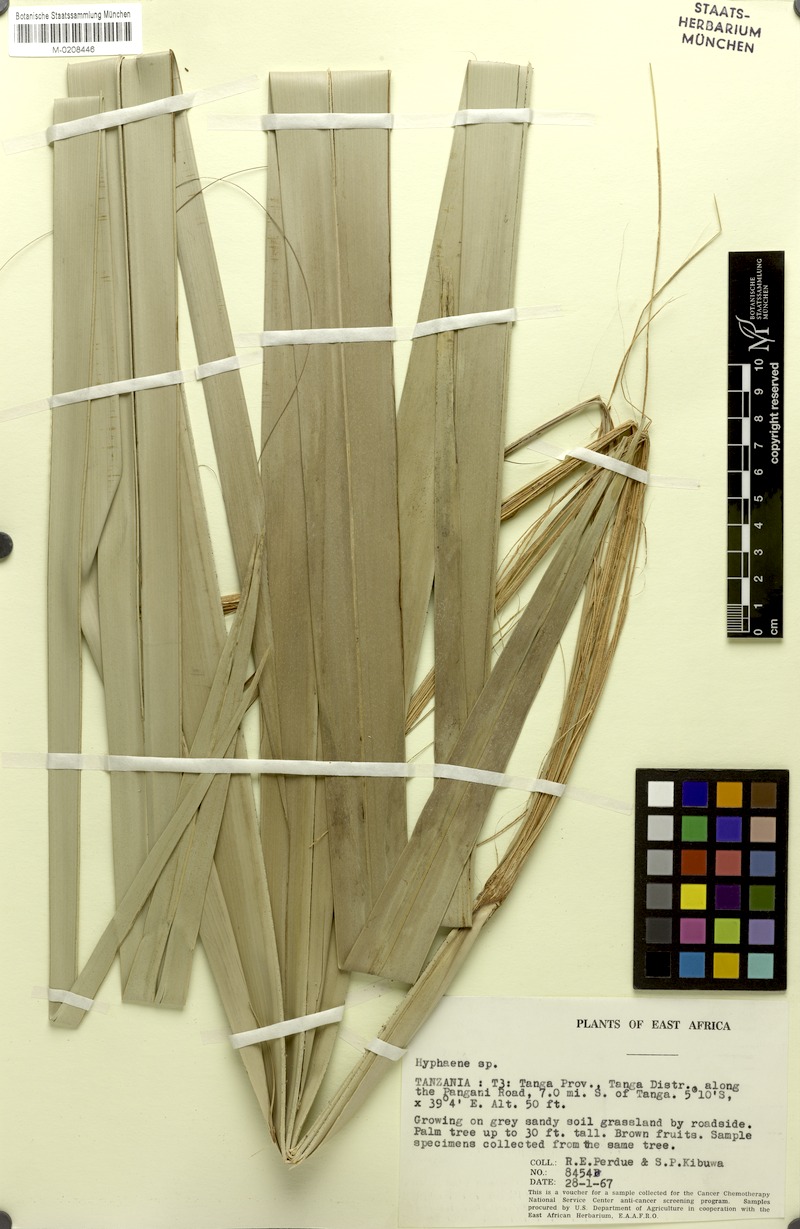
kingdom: Plantae
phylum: Tracheophyta
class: Liliopsida
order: Arecales
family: Arecaceae
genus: Hyphaene
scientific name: Hyphaene
